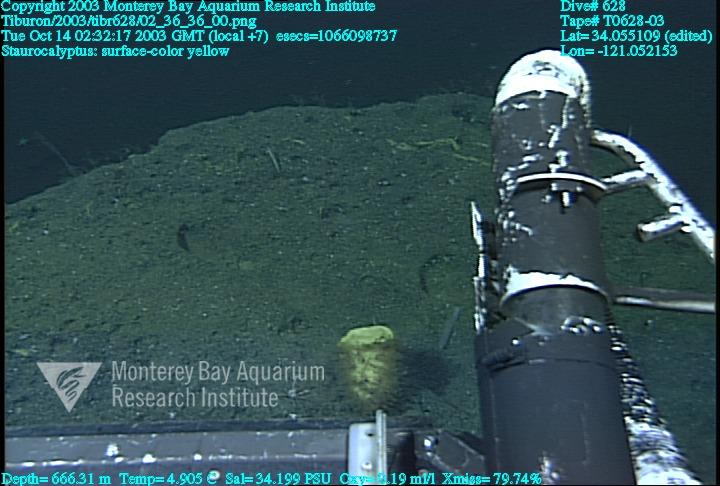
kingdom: Animalia
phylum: Porifera
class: Hexactinellida
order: Lyssacinosida
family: Rossellidae
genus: Staurocalyptus
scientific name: Staurocalyptus
